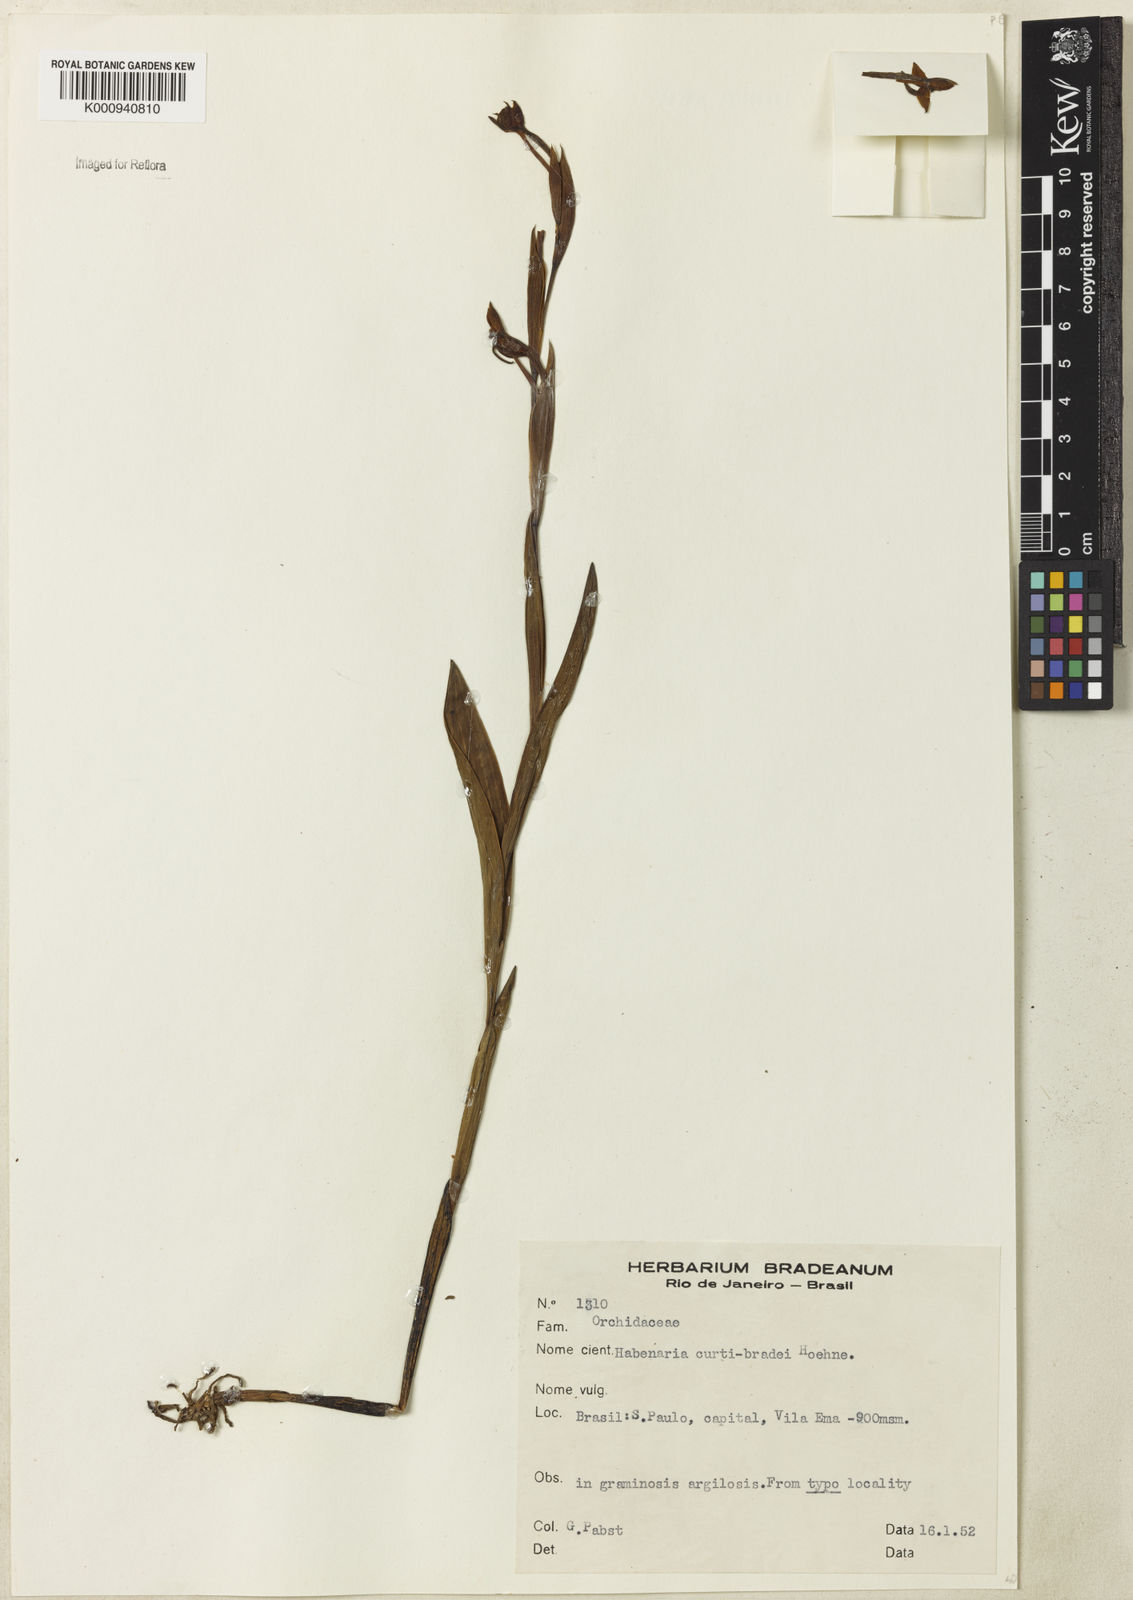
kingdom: Plantae
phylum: Tracheophyta
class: Liliopsida
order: Asparagales
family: Orchidaceae
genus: Habenaria
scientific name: Habenaria trifida
